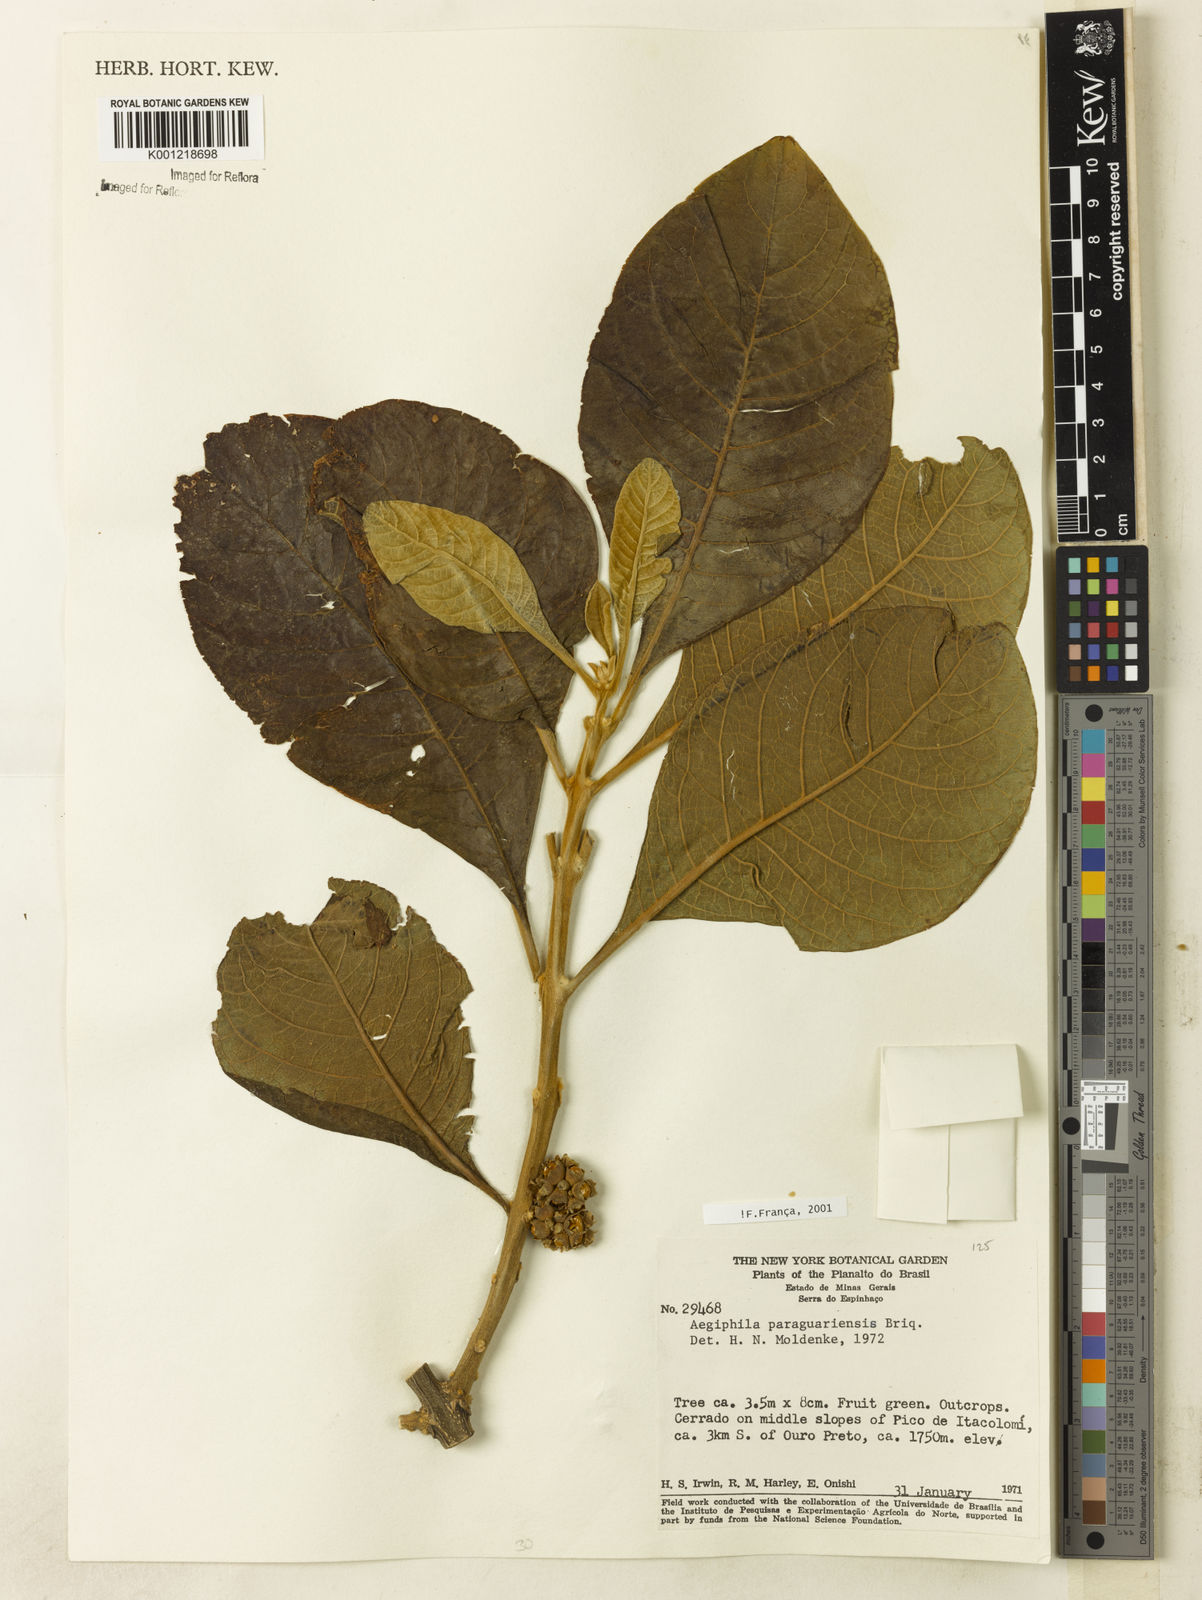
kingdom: Plantae
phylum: Tracheophyta
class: Magnoliopsida
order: Lamiales
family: Lamiaceae
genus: Aegiphila
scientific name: Aegiphila paraguariensis
